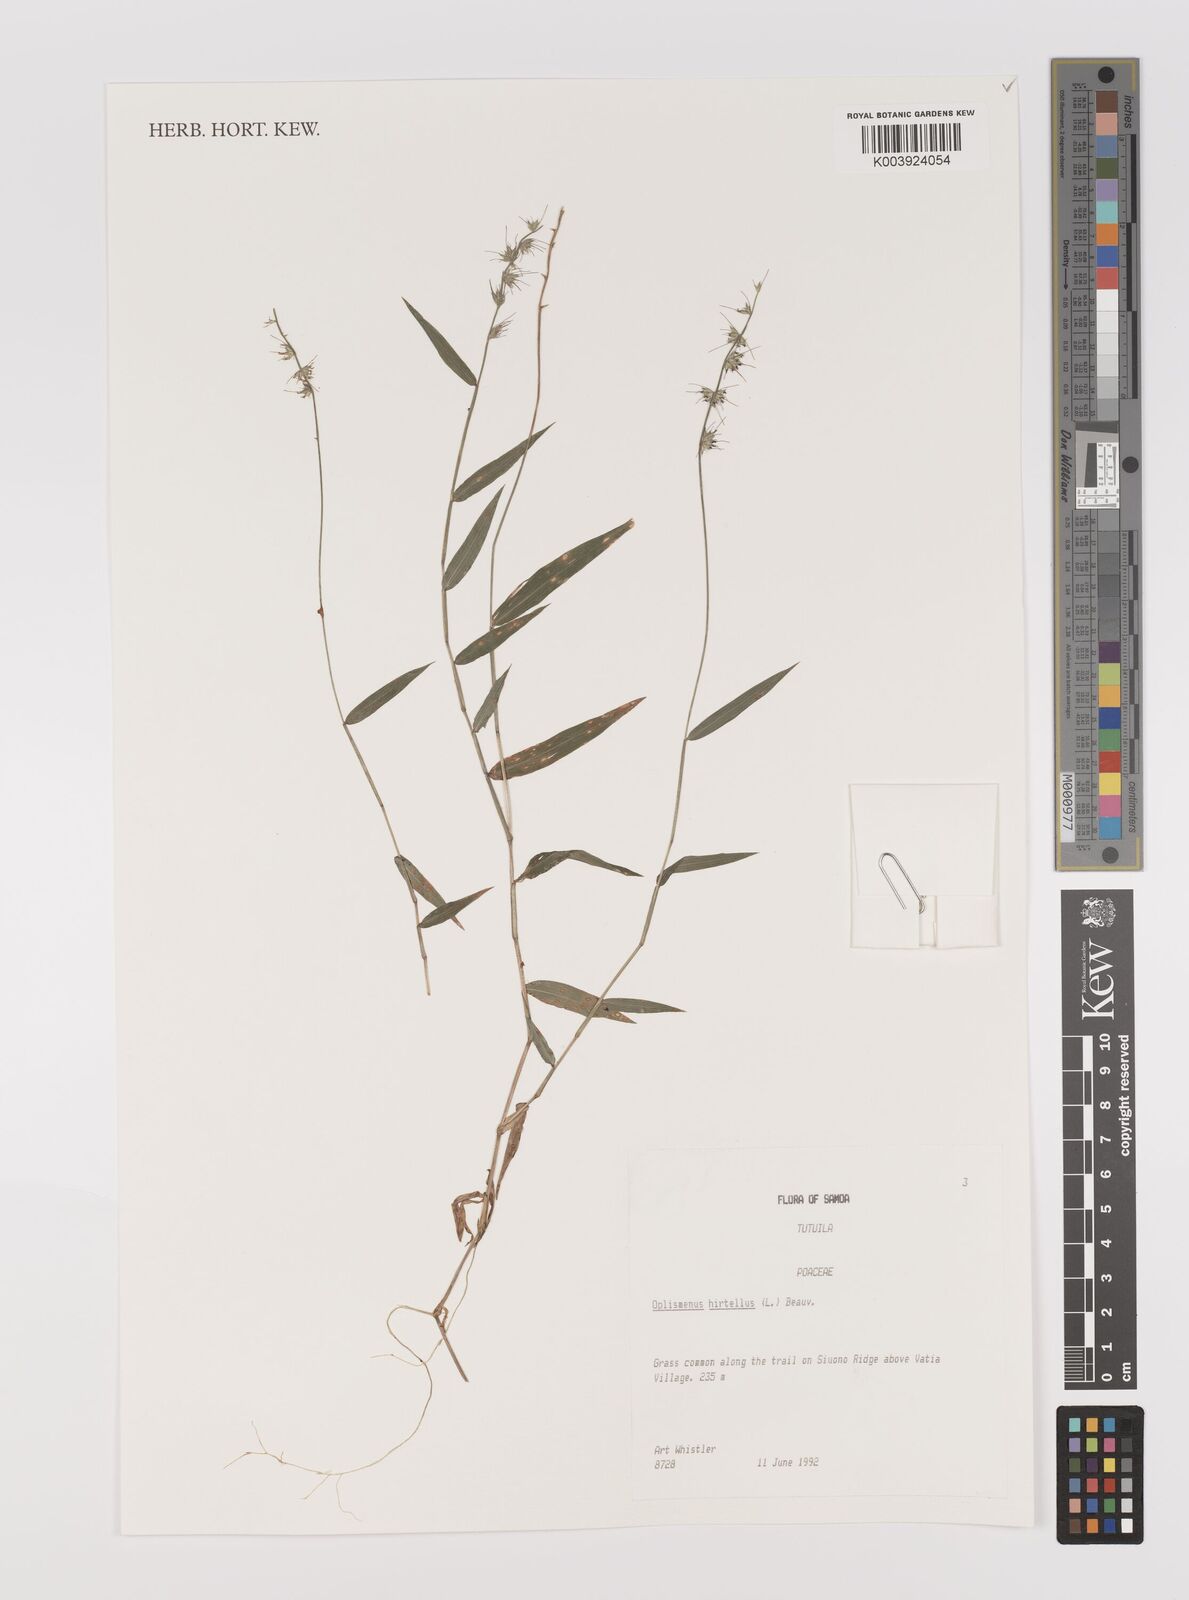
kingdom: Plantae
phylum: Tracheophyta
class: Liliopsida
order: Poales
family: Poaceae
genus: Oplismenus
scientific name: Oplismenus hirtellus
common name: Basketgrass
